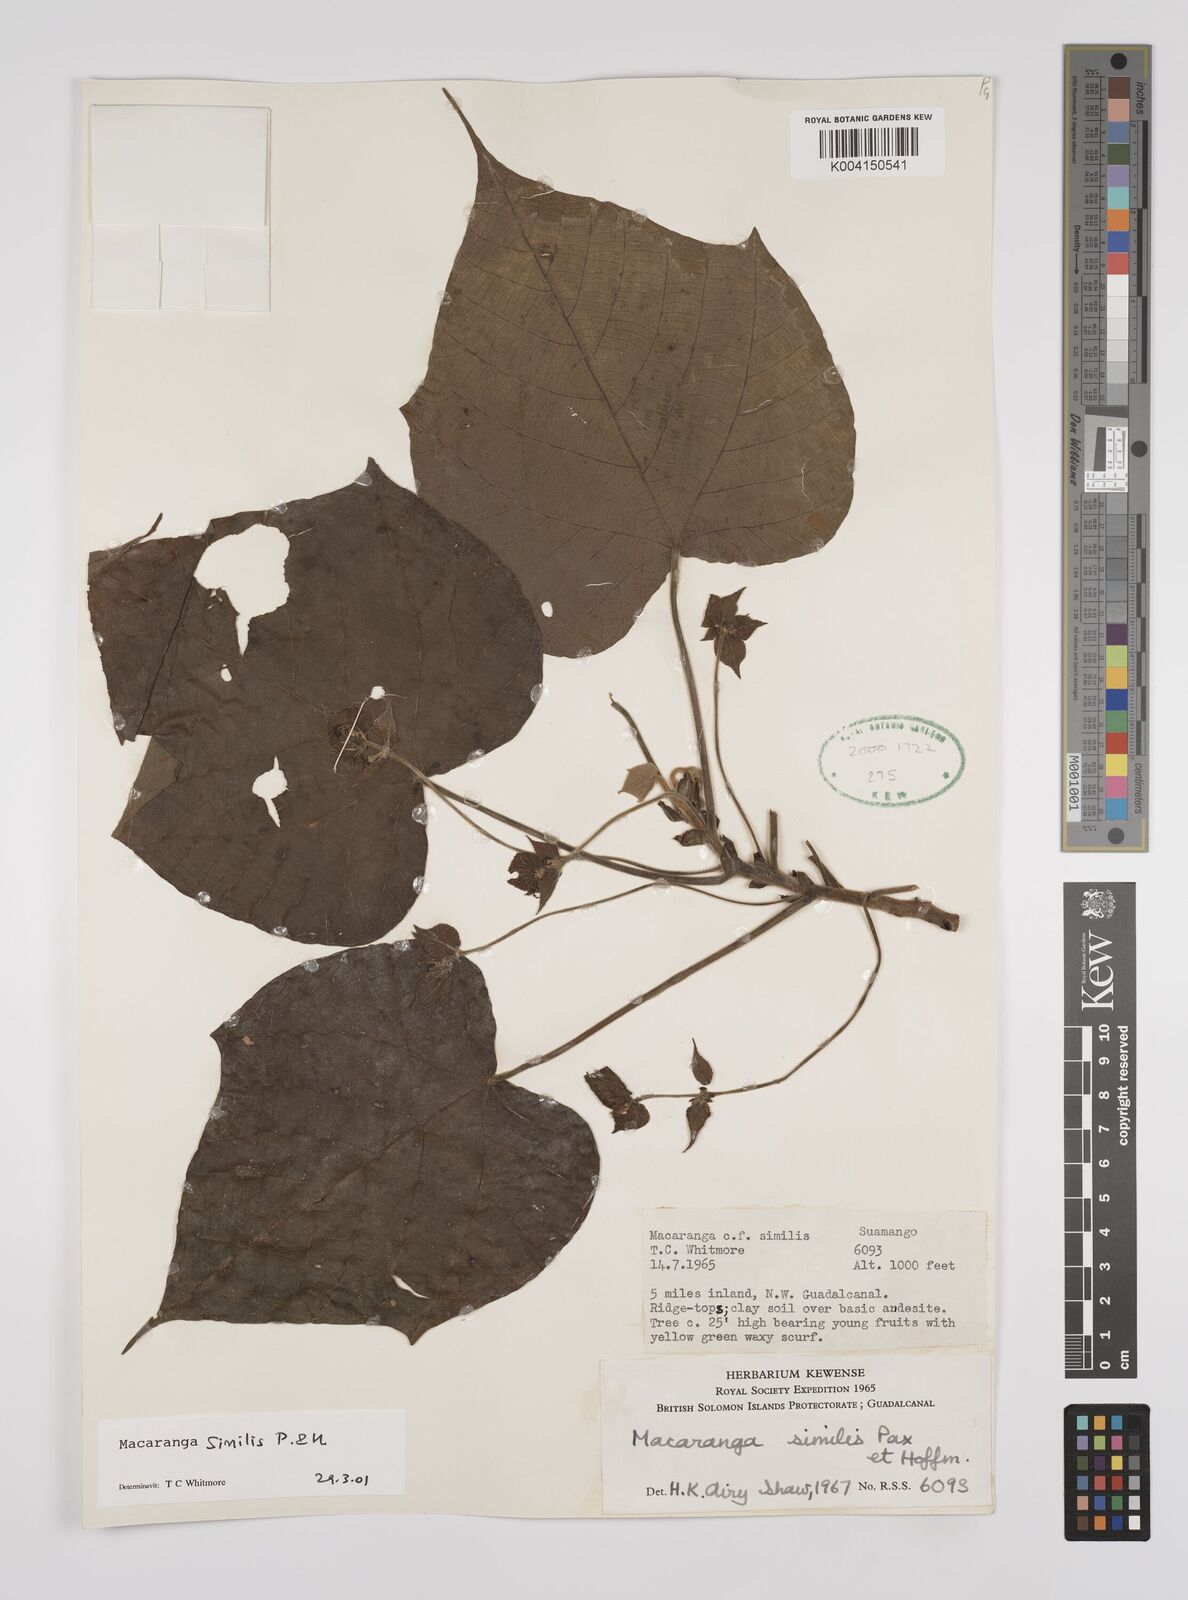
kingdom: Plantae
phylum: Tracheophyta
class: Magnoliopsida
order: Malpighiales
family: Euphorbiaceae
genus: Macaranga
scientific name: Macaranga similis
